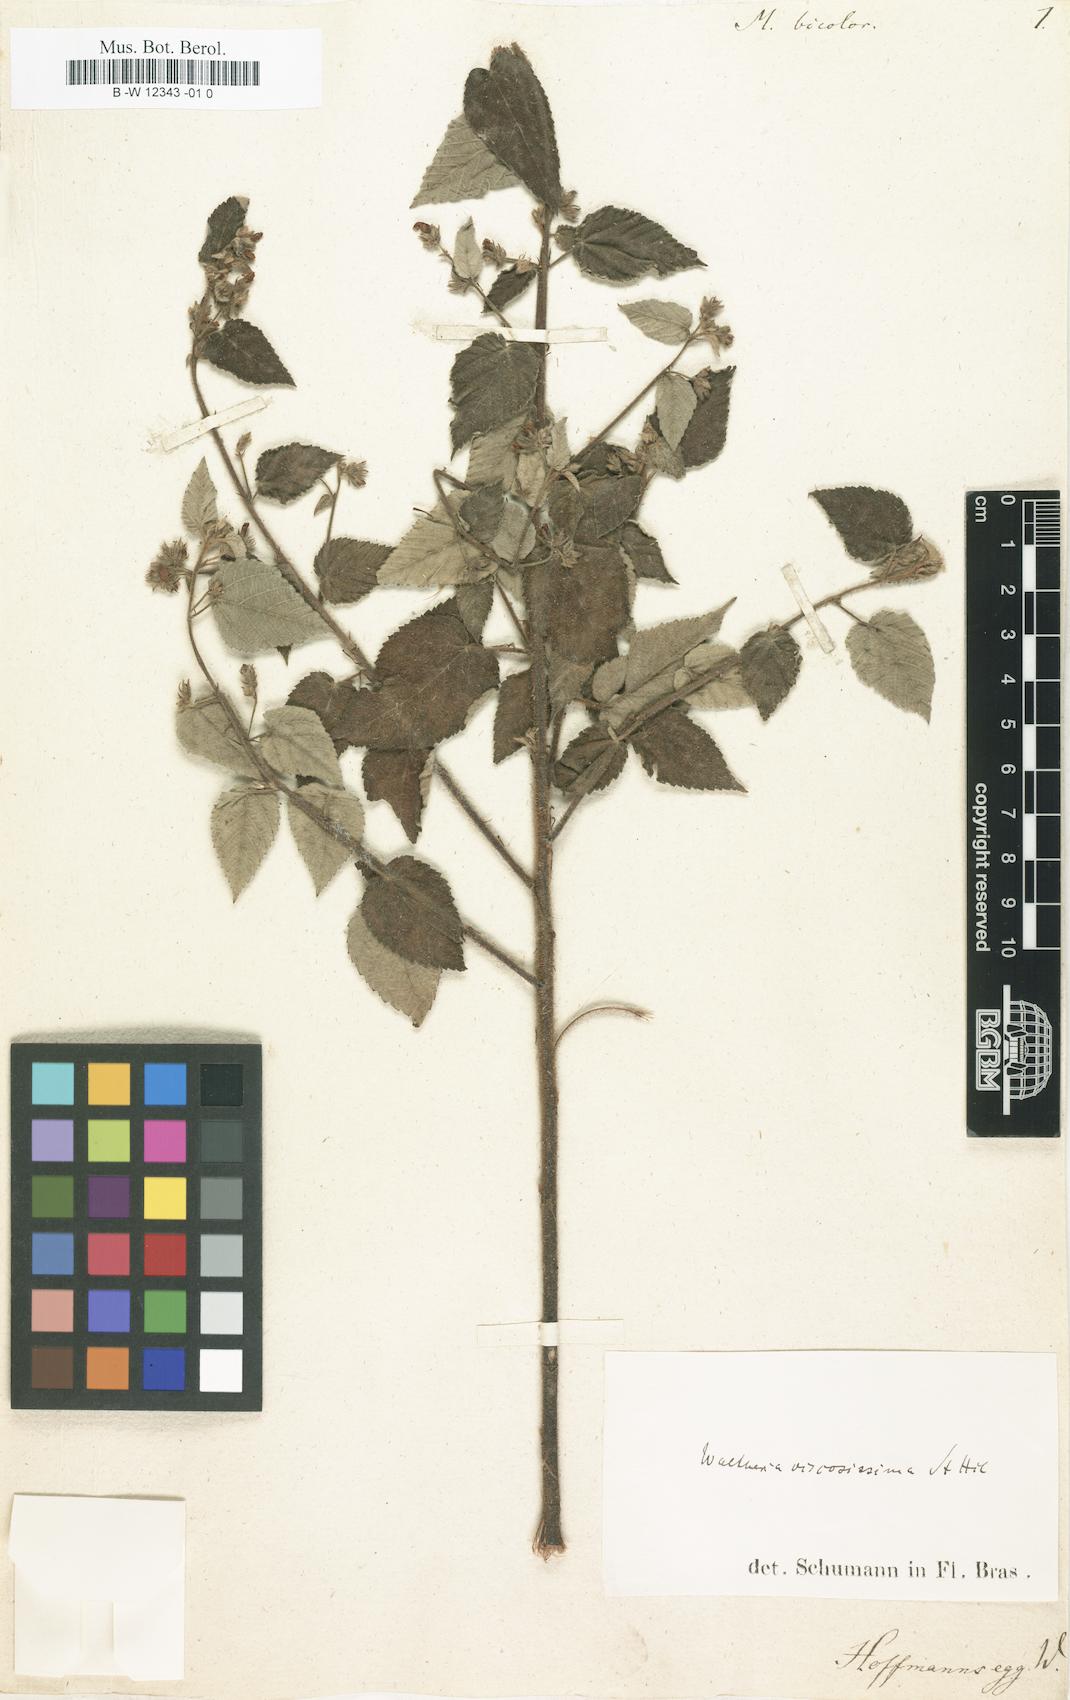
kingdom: Plantae
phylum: Tracheophyta
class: Magnoliopsida
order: Malvales
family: Malvaceae
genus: Melochia
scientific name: Melochia
